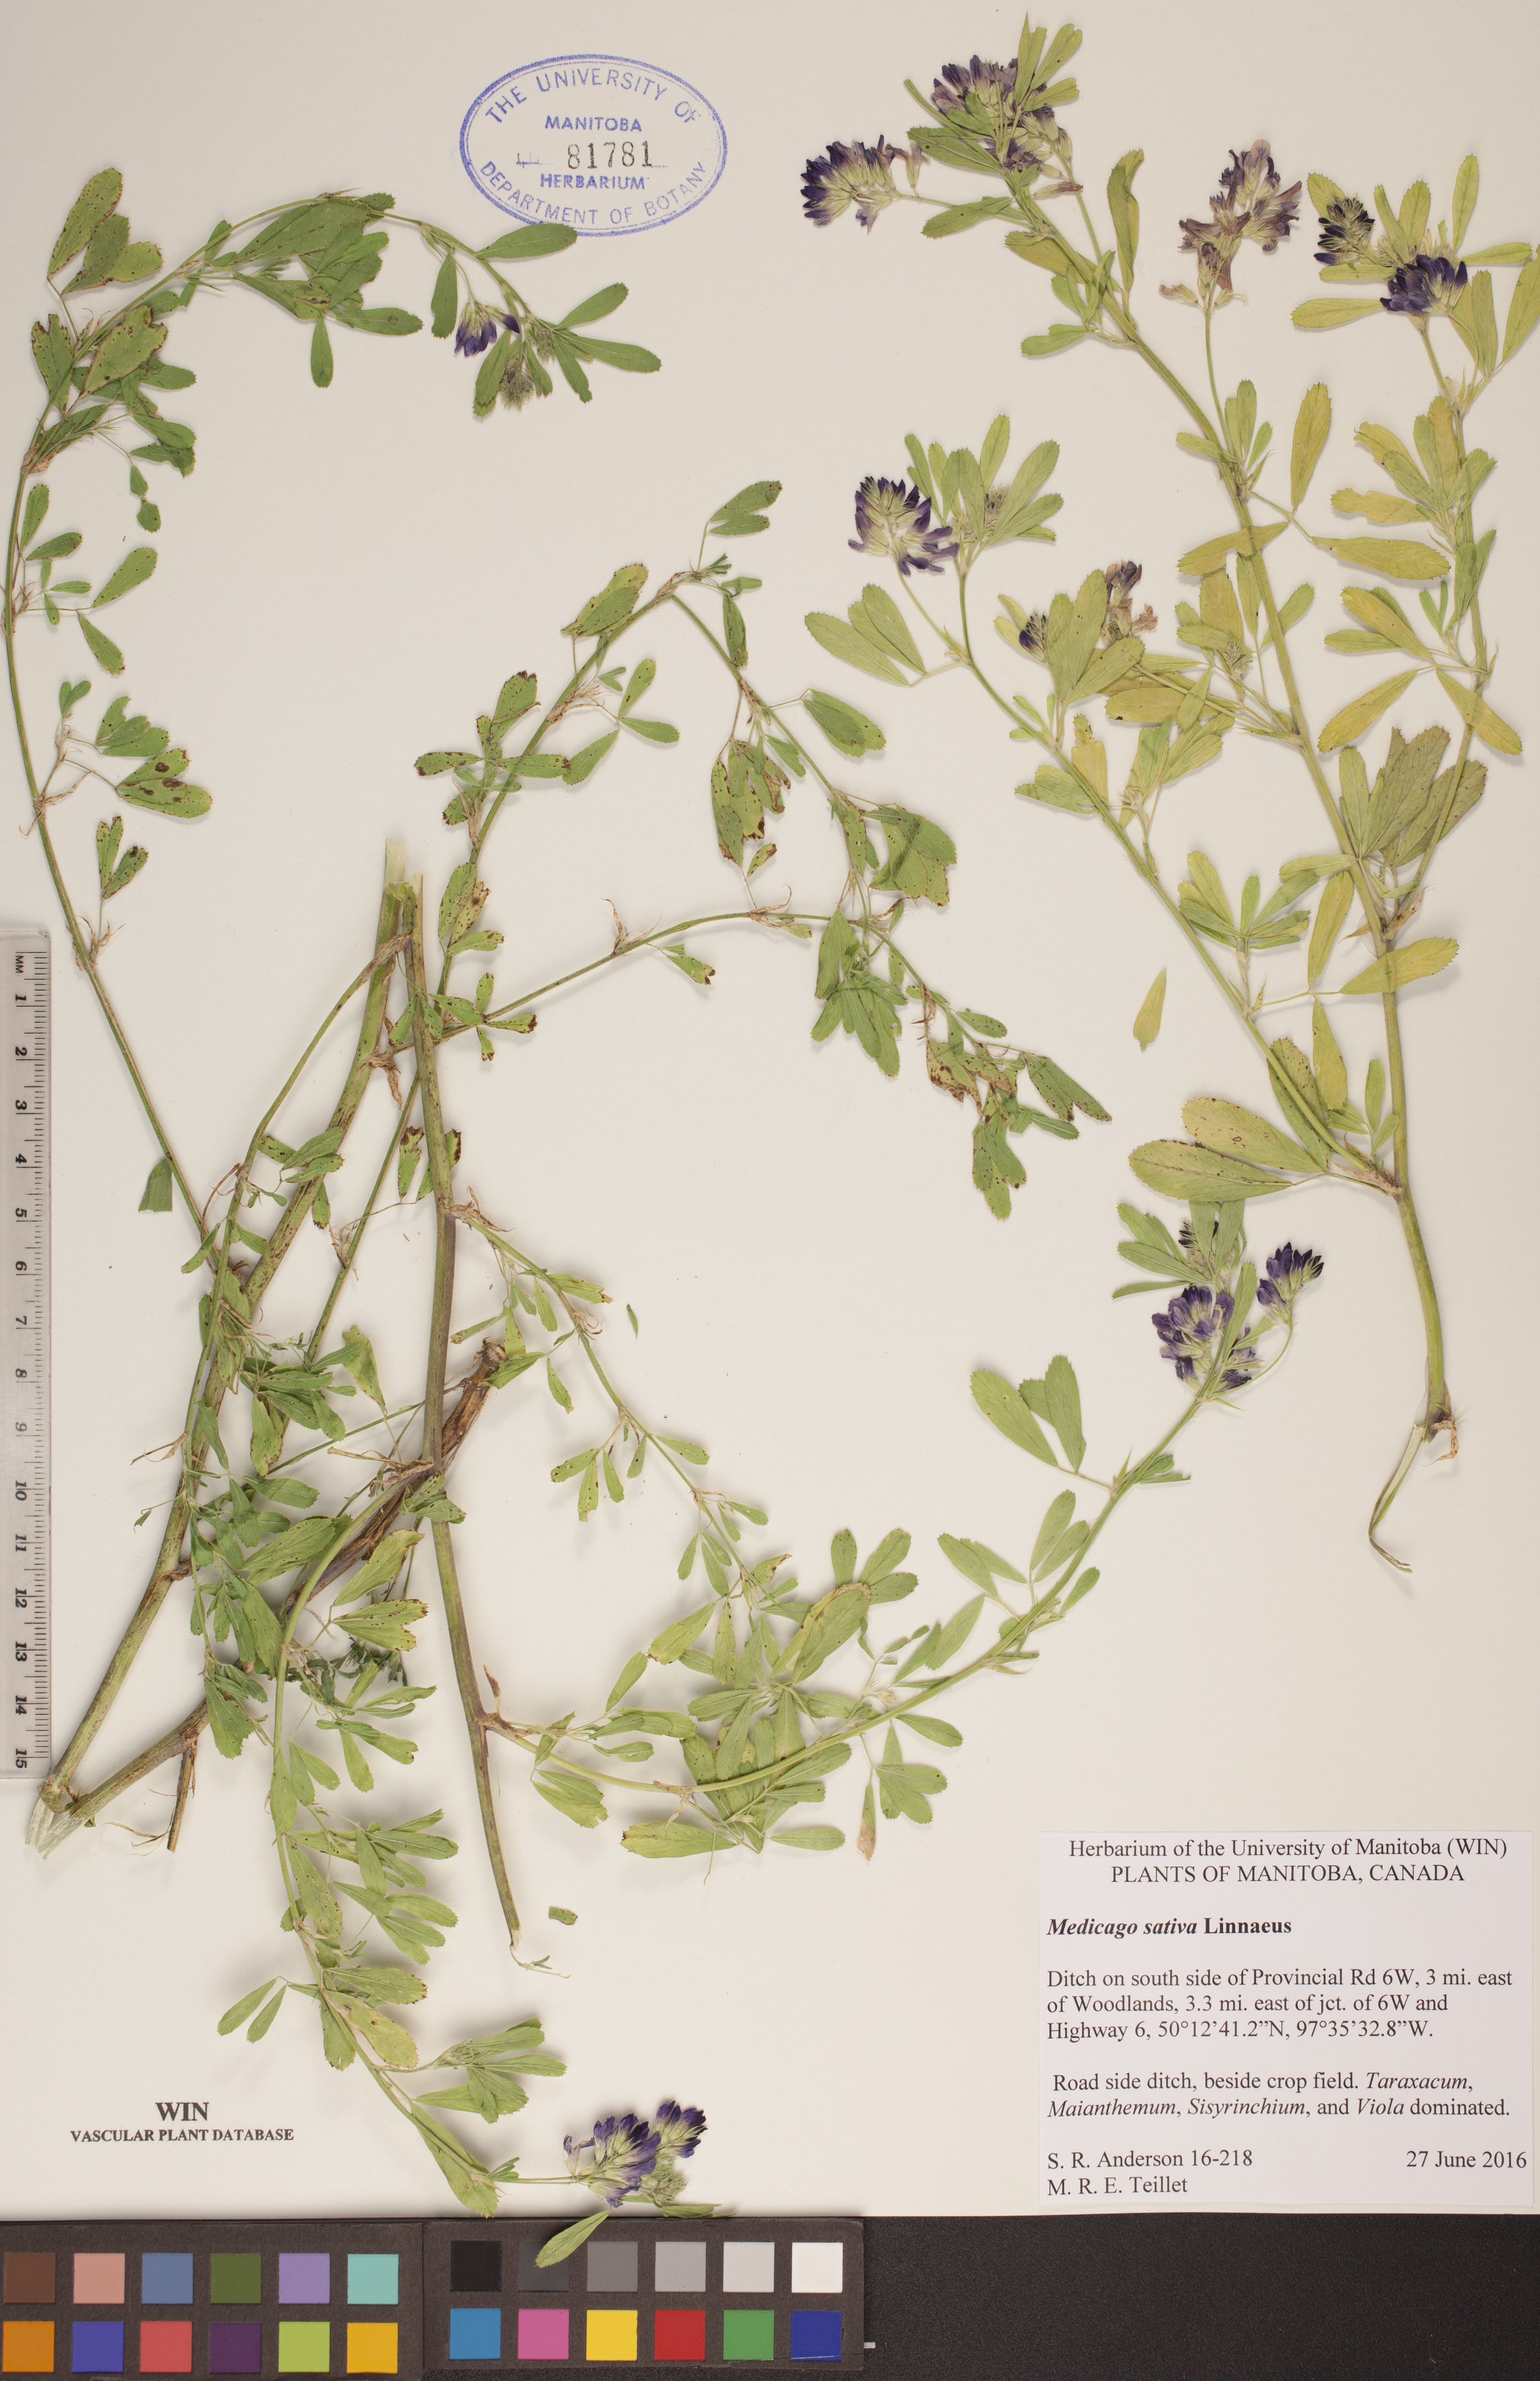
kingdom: Plantae
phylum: Tracheophyta
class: Magnoliopsida
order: Fabales
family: Fabaceae
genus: Medicago
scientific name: Medicago sativa
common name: Alfalfa
